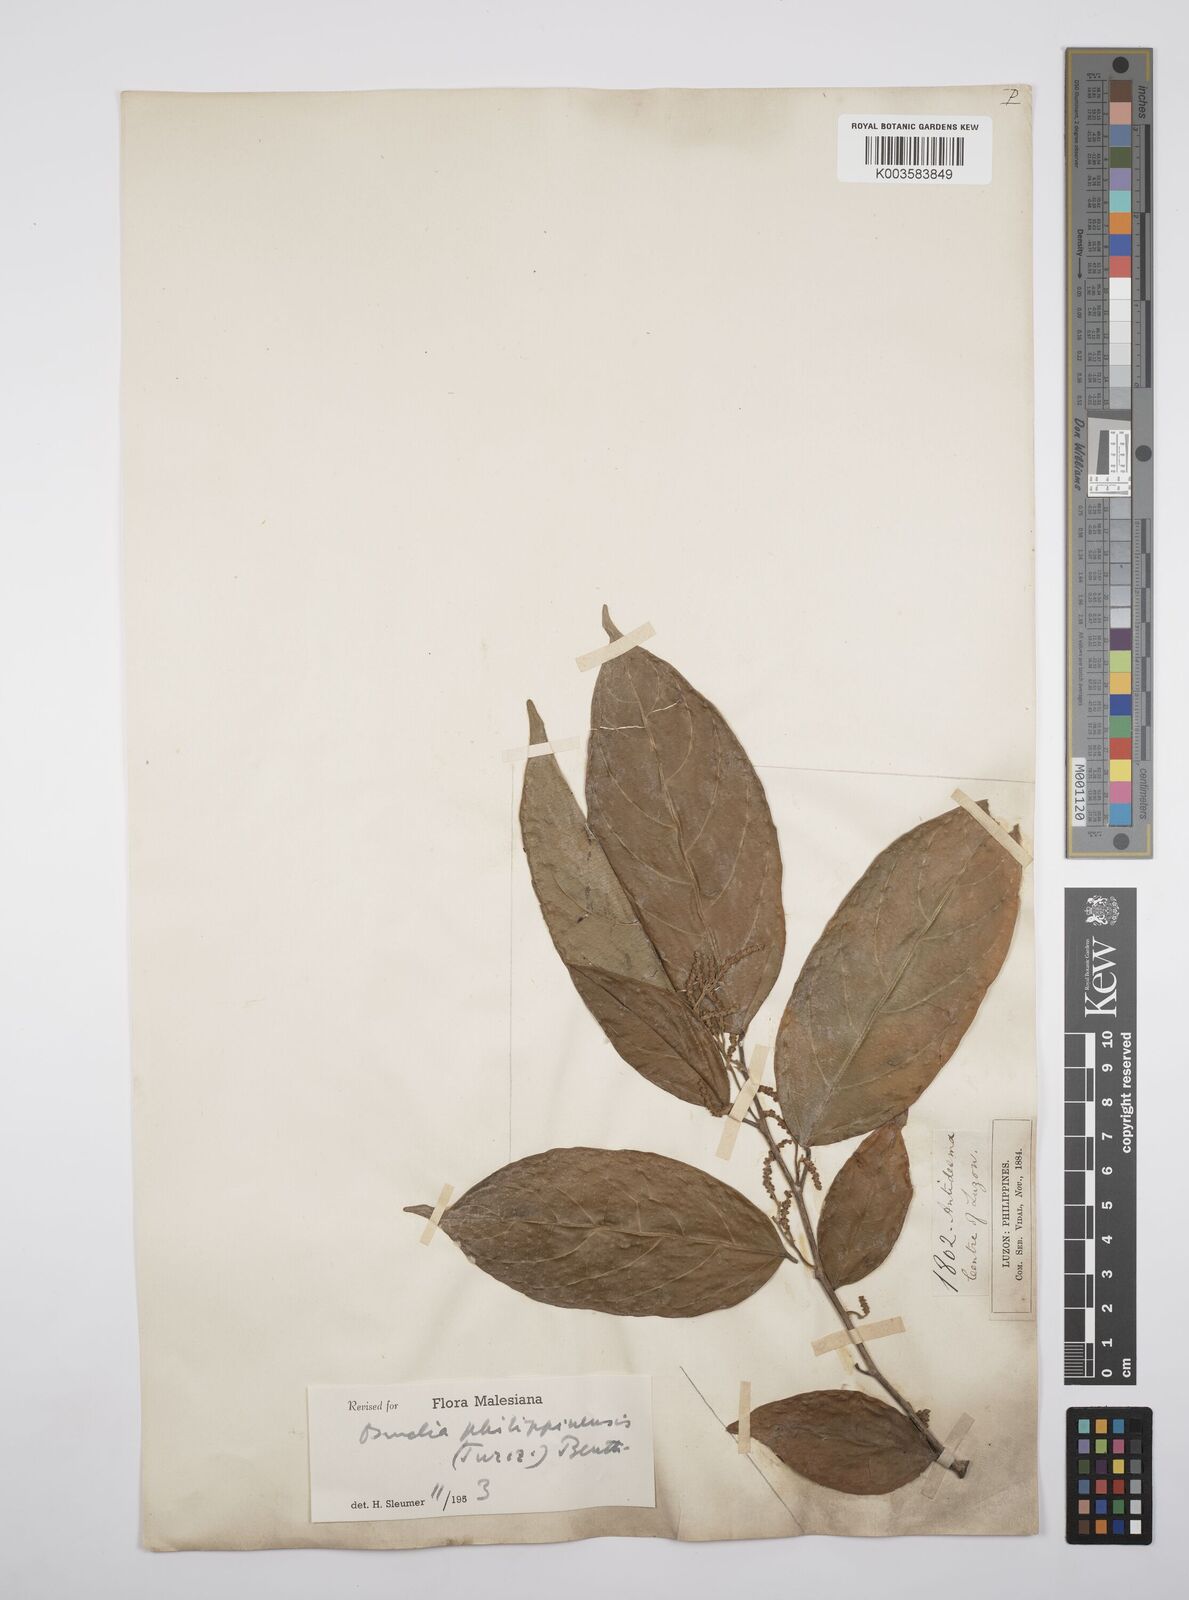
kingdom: Plantae
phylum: Tracheophyta
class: Magnoliopsida
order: Malpighiales
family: Salicaceae
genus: Osmelia
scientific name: Osmelia philippina
